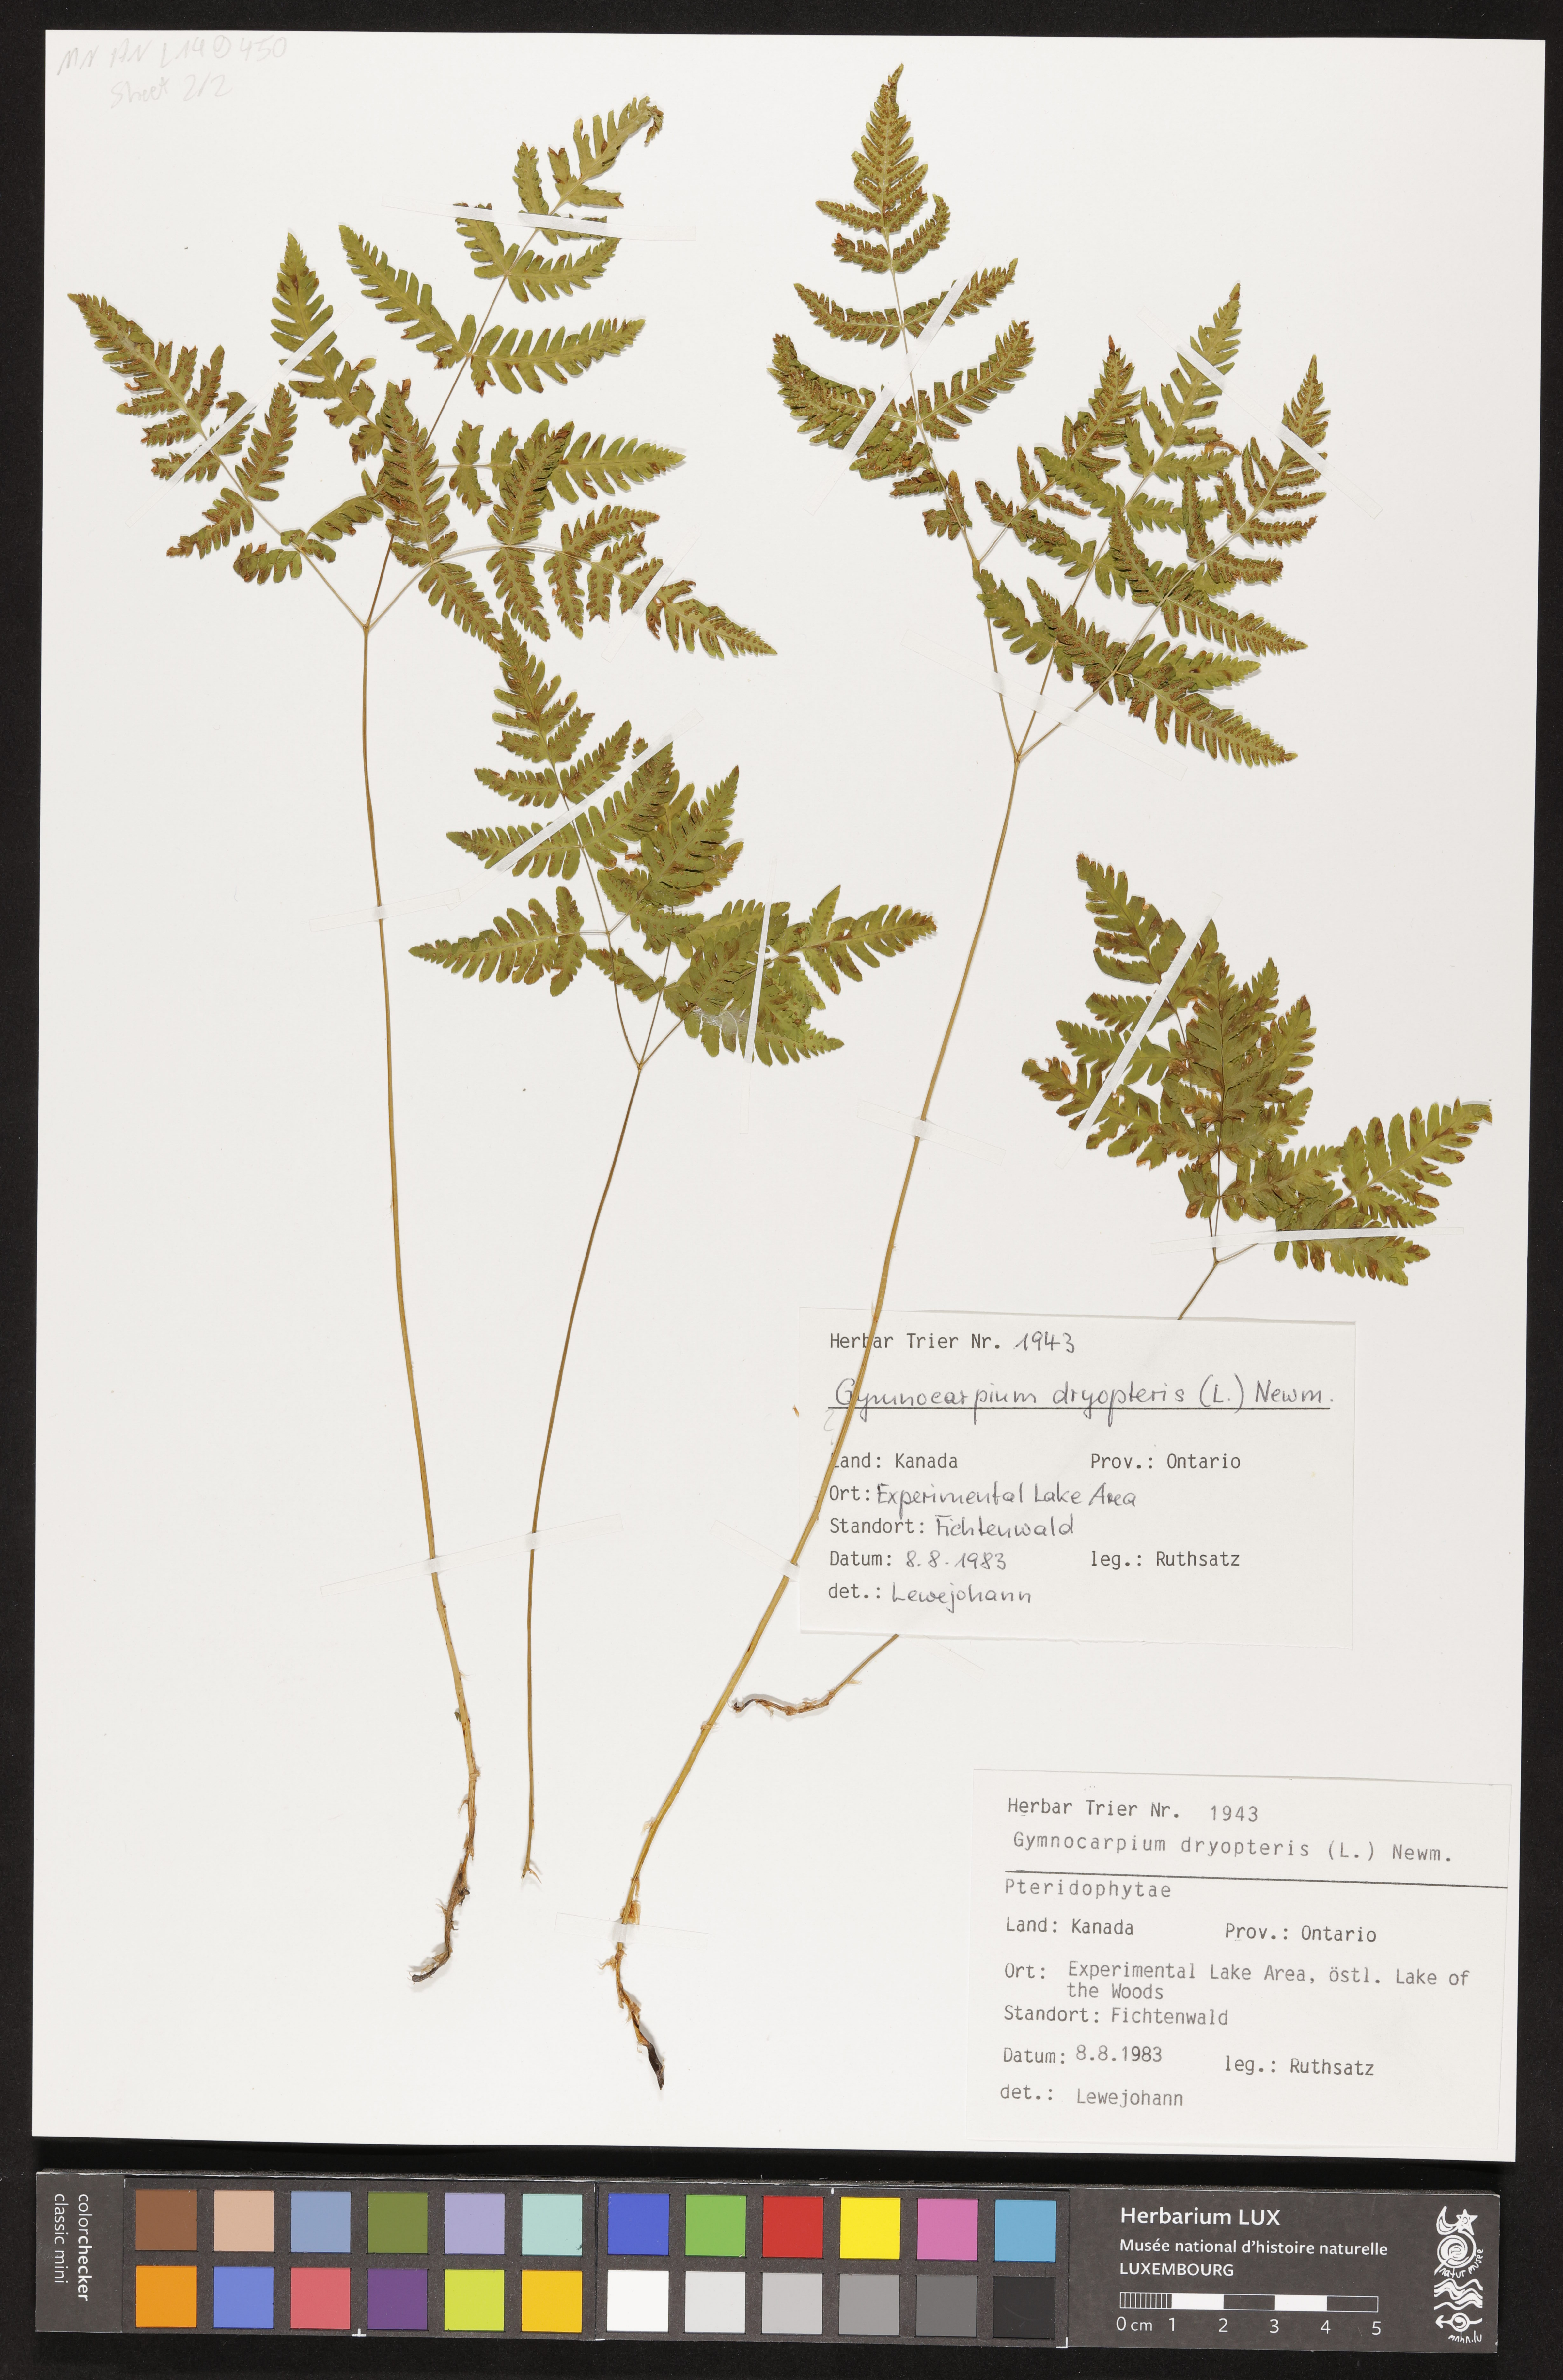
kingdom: Plantae
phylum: Tracheophyta
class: Polypodiopsida
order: Polypodiales
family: Cystopteridaceae
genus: Gymnocarpium
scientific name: Gymnocarpium dryopteris
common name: Oak fern
